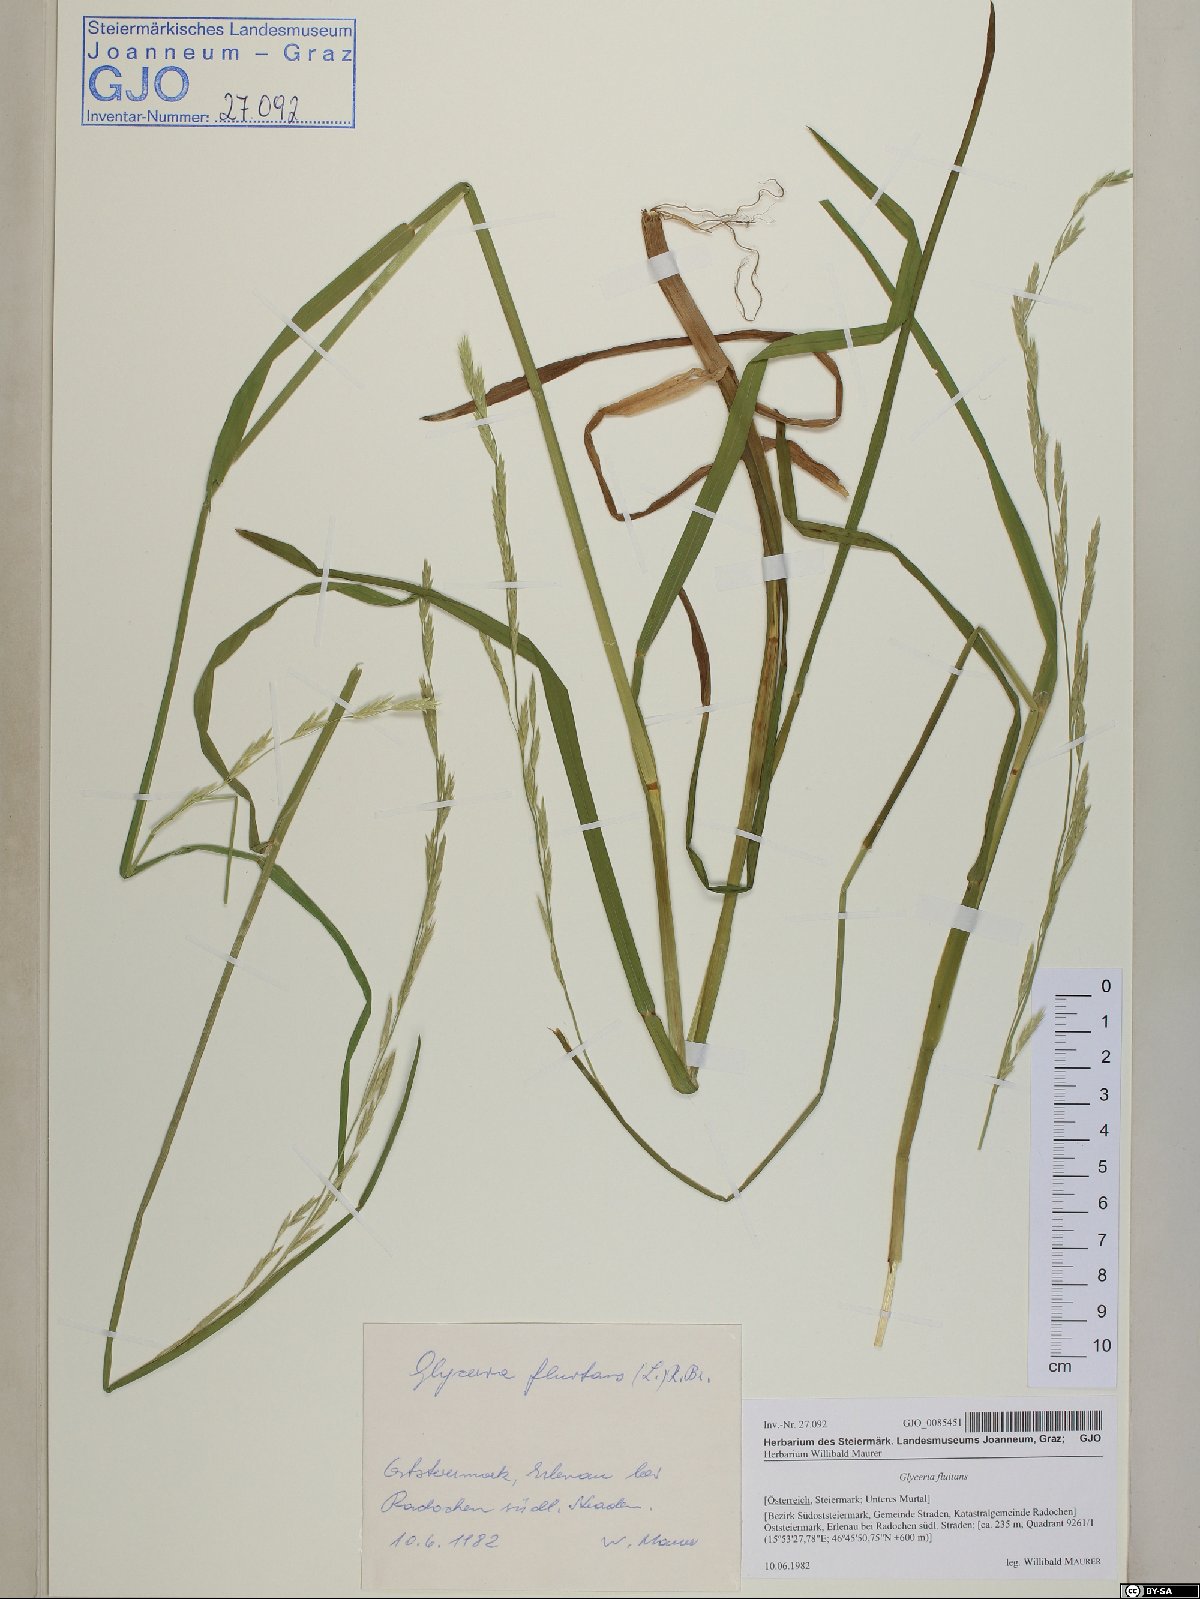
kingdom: Plantae
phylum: Tracheophyta
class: Liliopsida
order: Poales
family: Poaceae
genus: Glyceria
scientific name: Glyceria fluitans
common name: Floating sweet-grass
